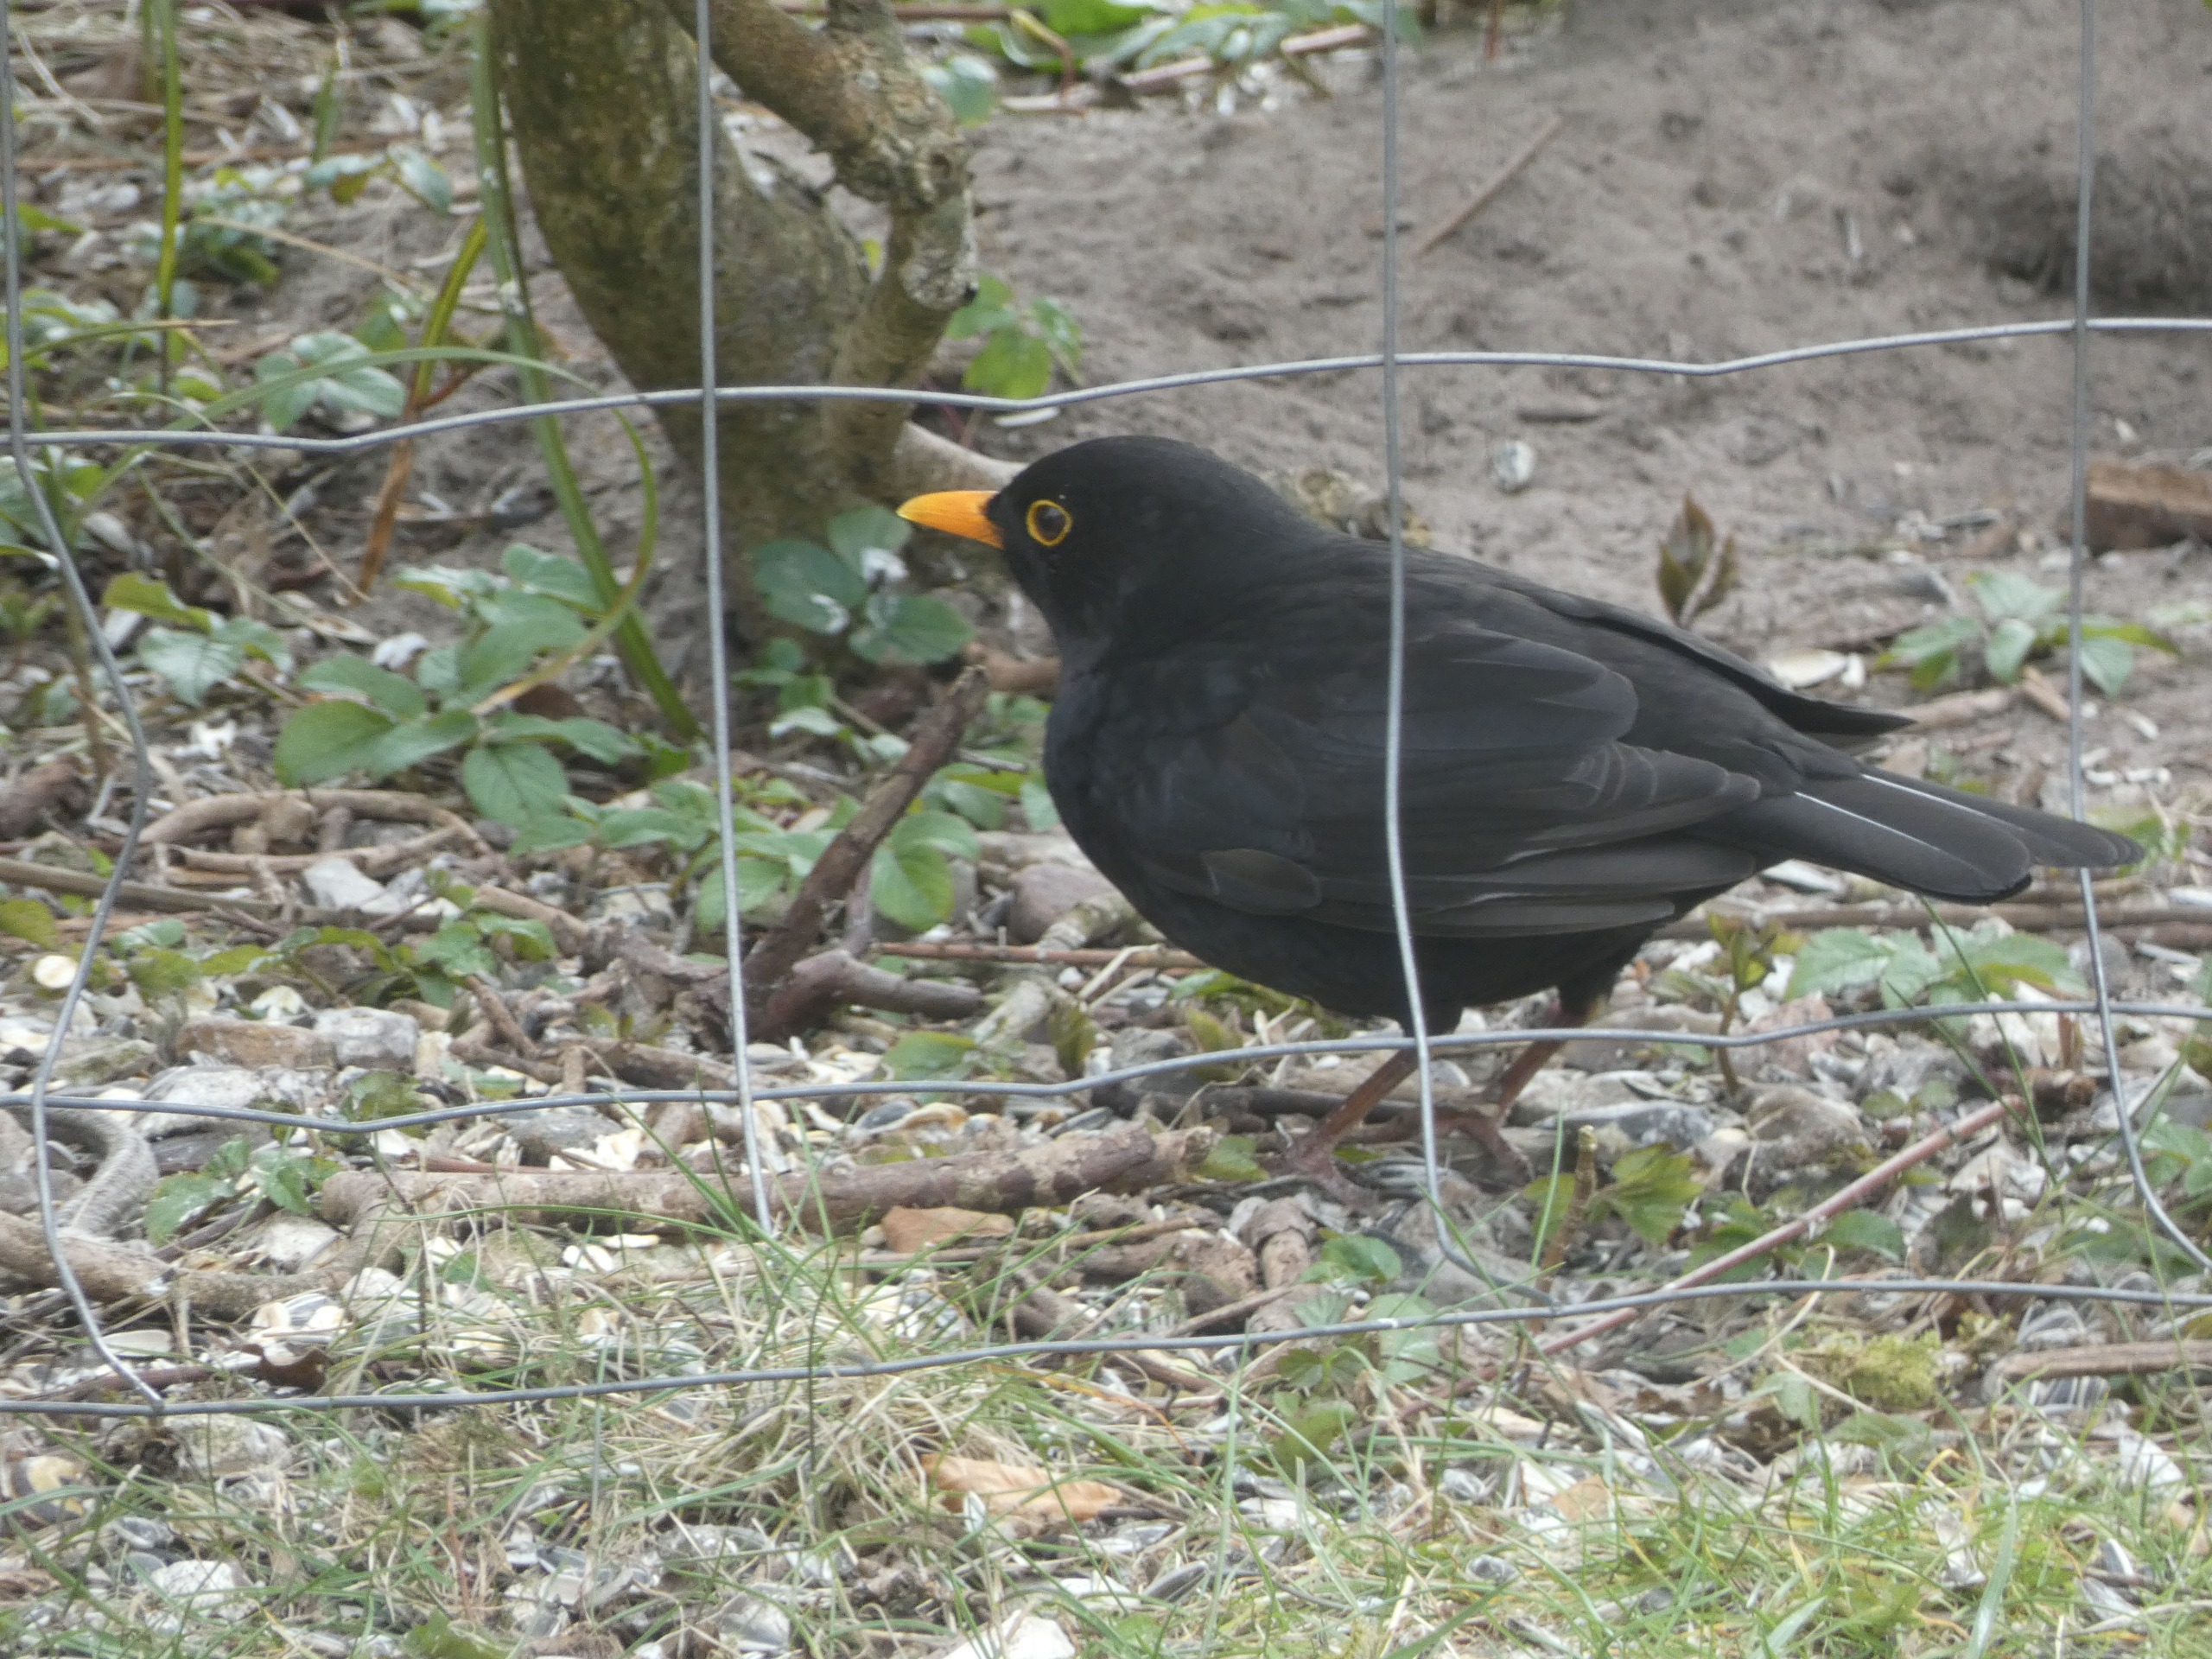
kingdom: Animalia
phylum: Chordata
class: Aves
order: Passeriformes
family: Turdidae
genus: Turdus
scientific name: Turdus merula
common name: Solsort
